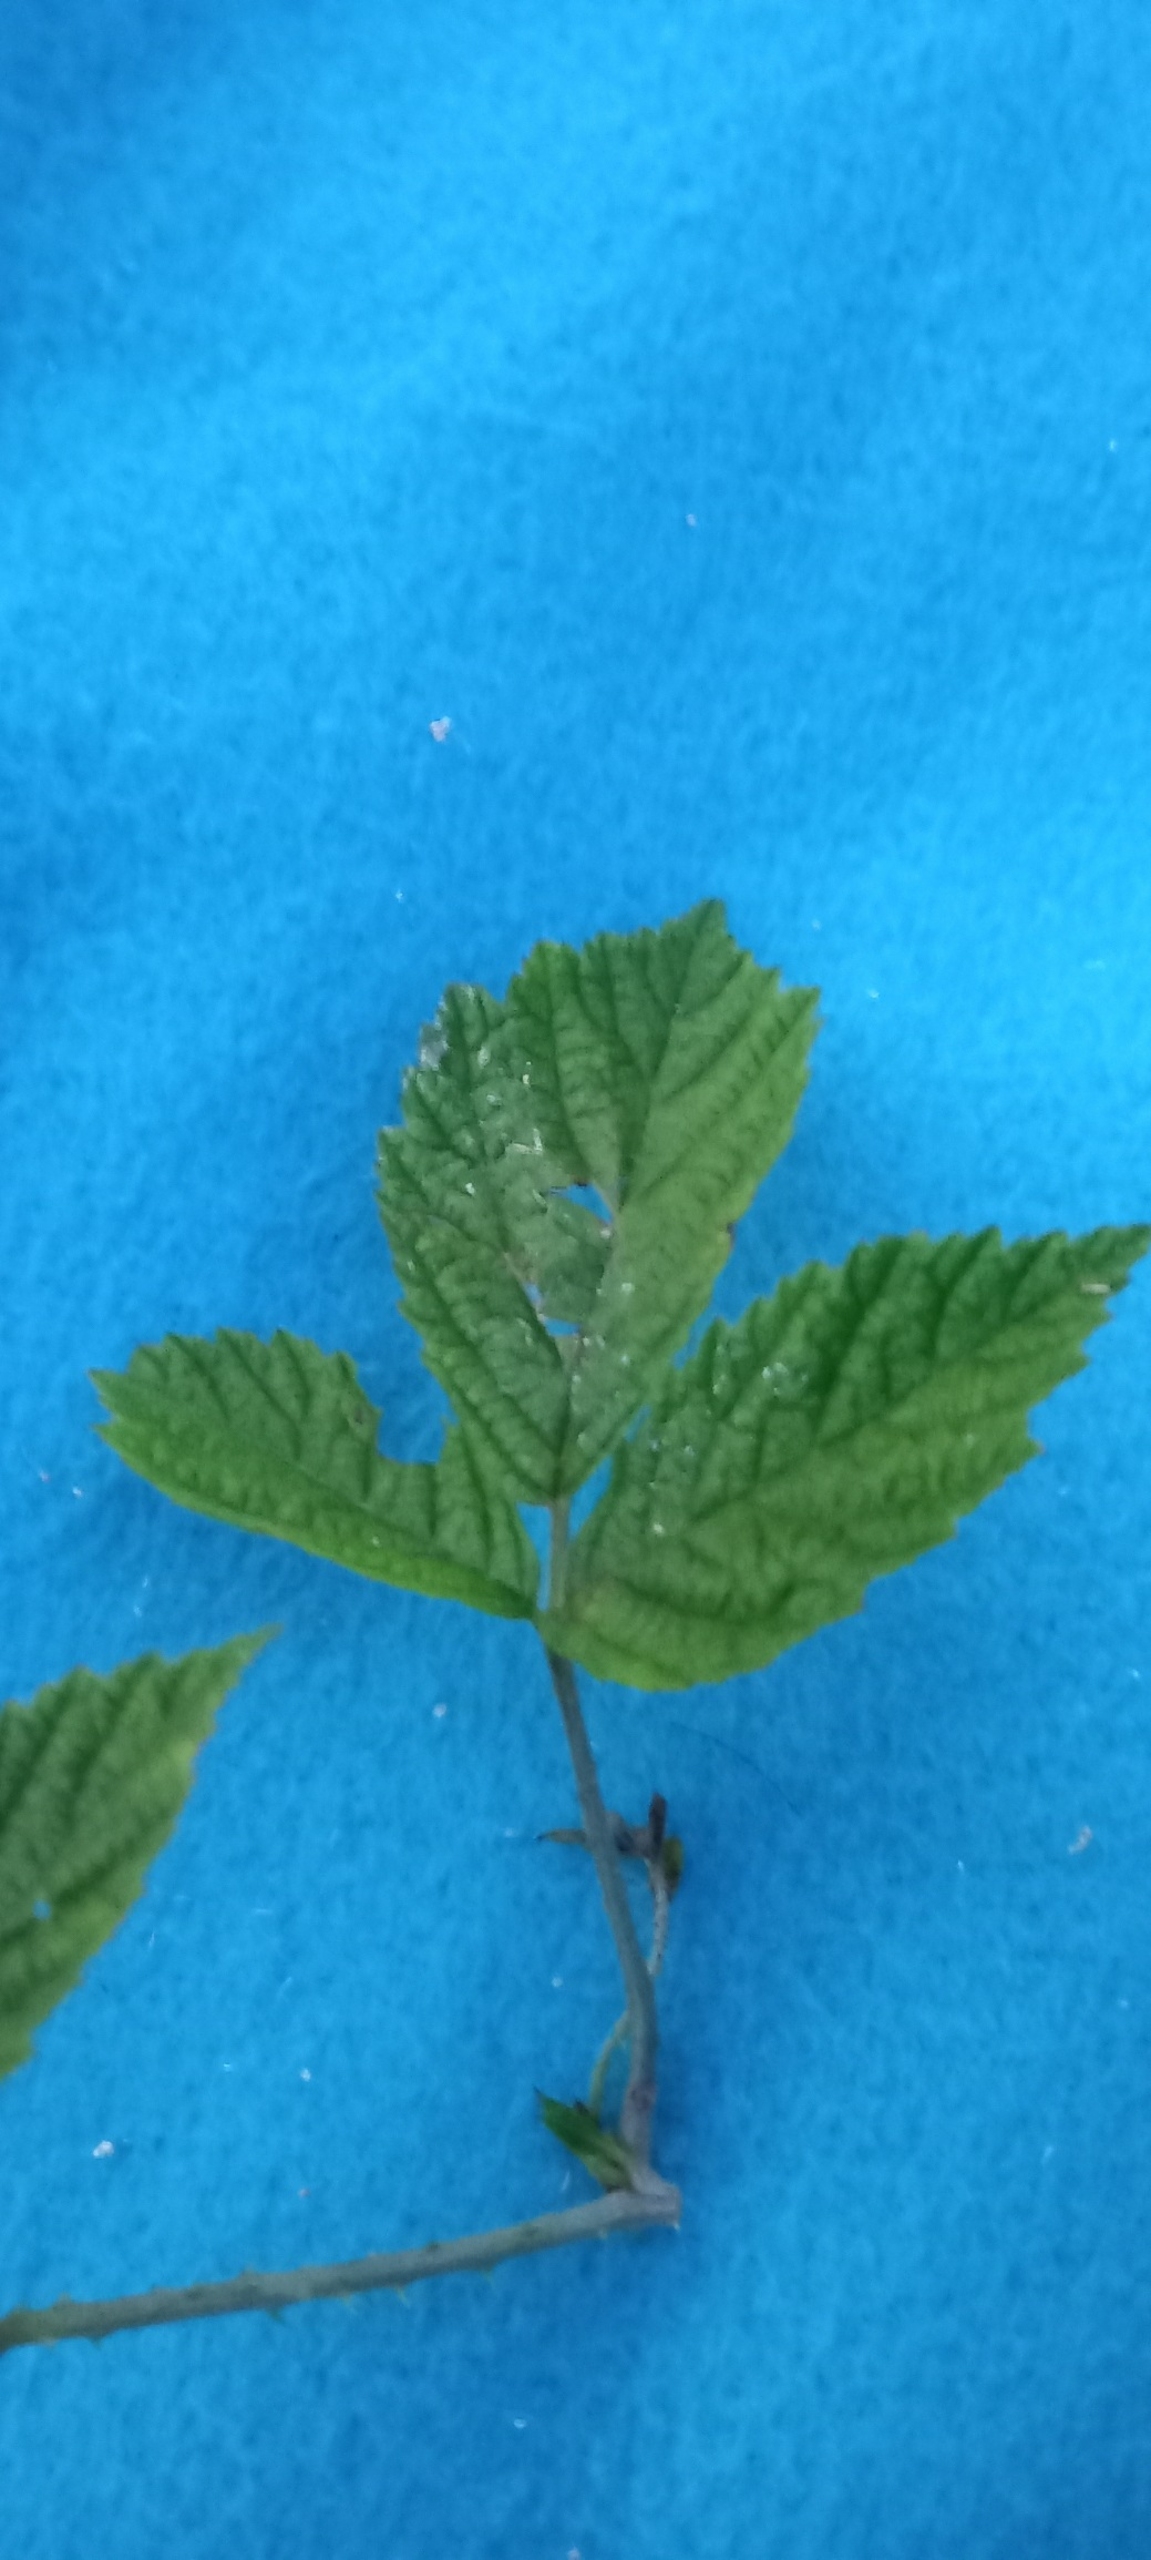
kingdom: Plantae
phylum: Tracheophyta
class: Magnoliopsida
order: Rosales
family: Rosaceae
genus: Rubus
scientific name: Rubus caesius
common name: Korbær
